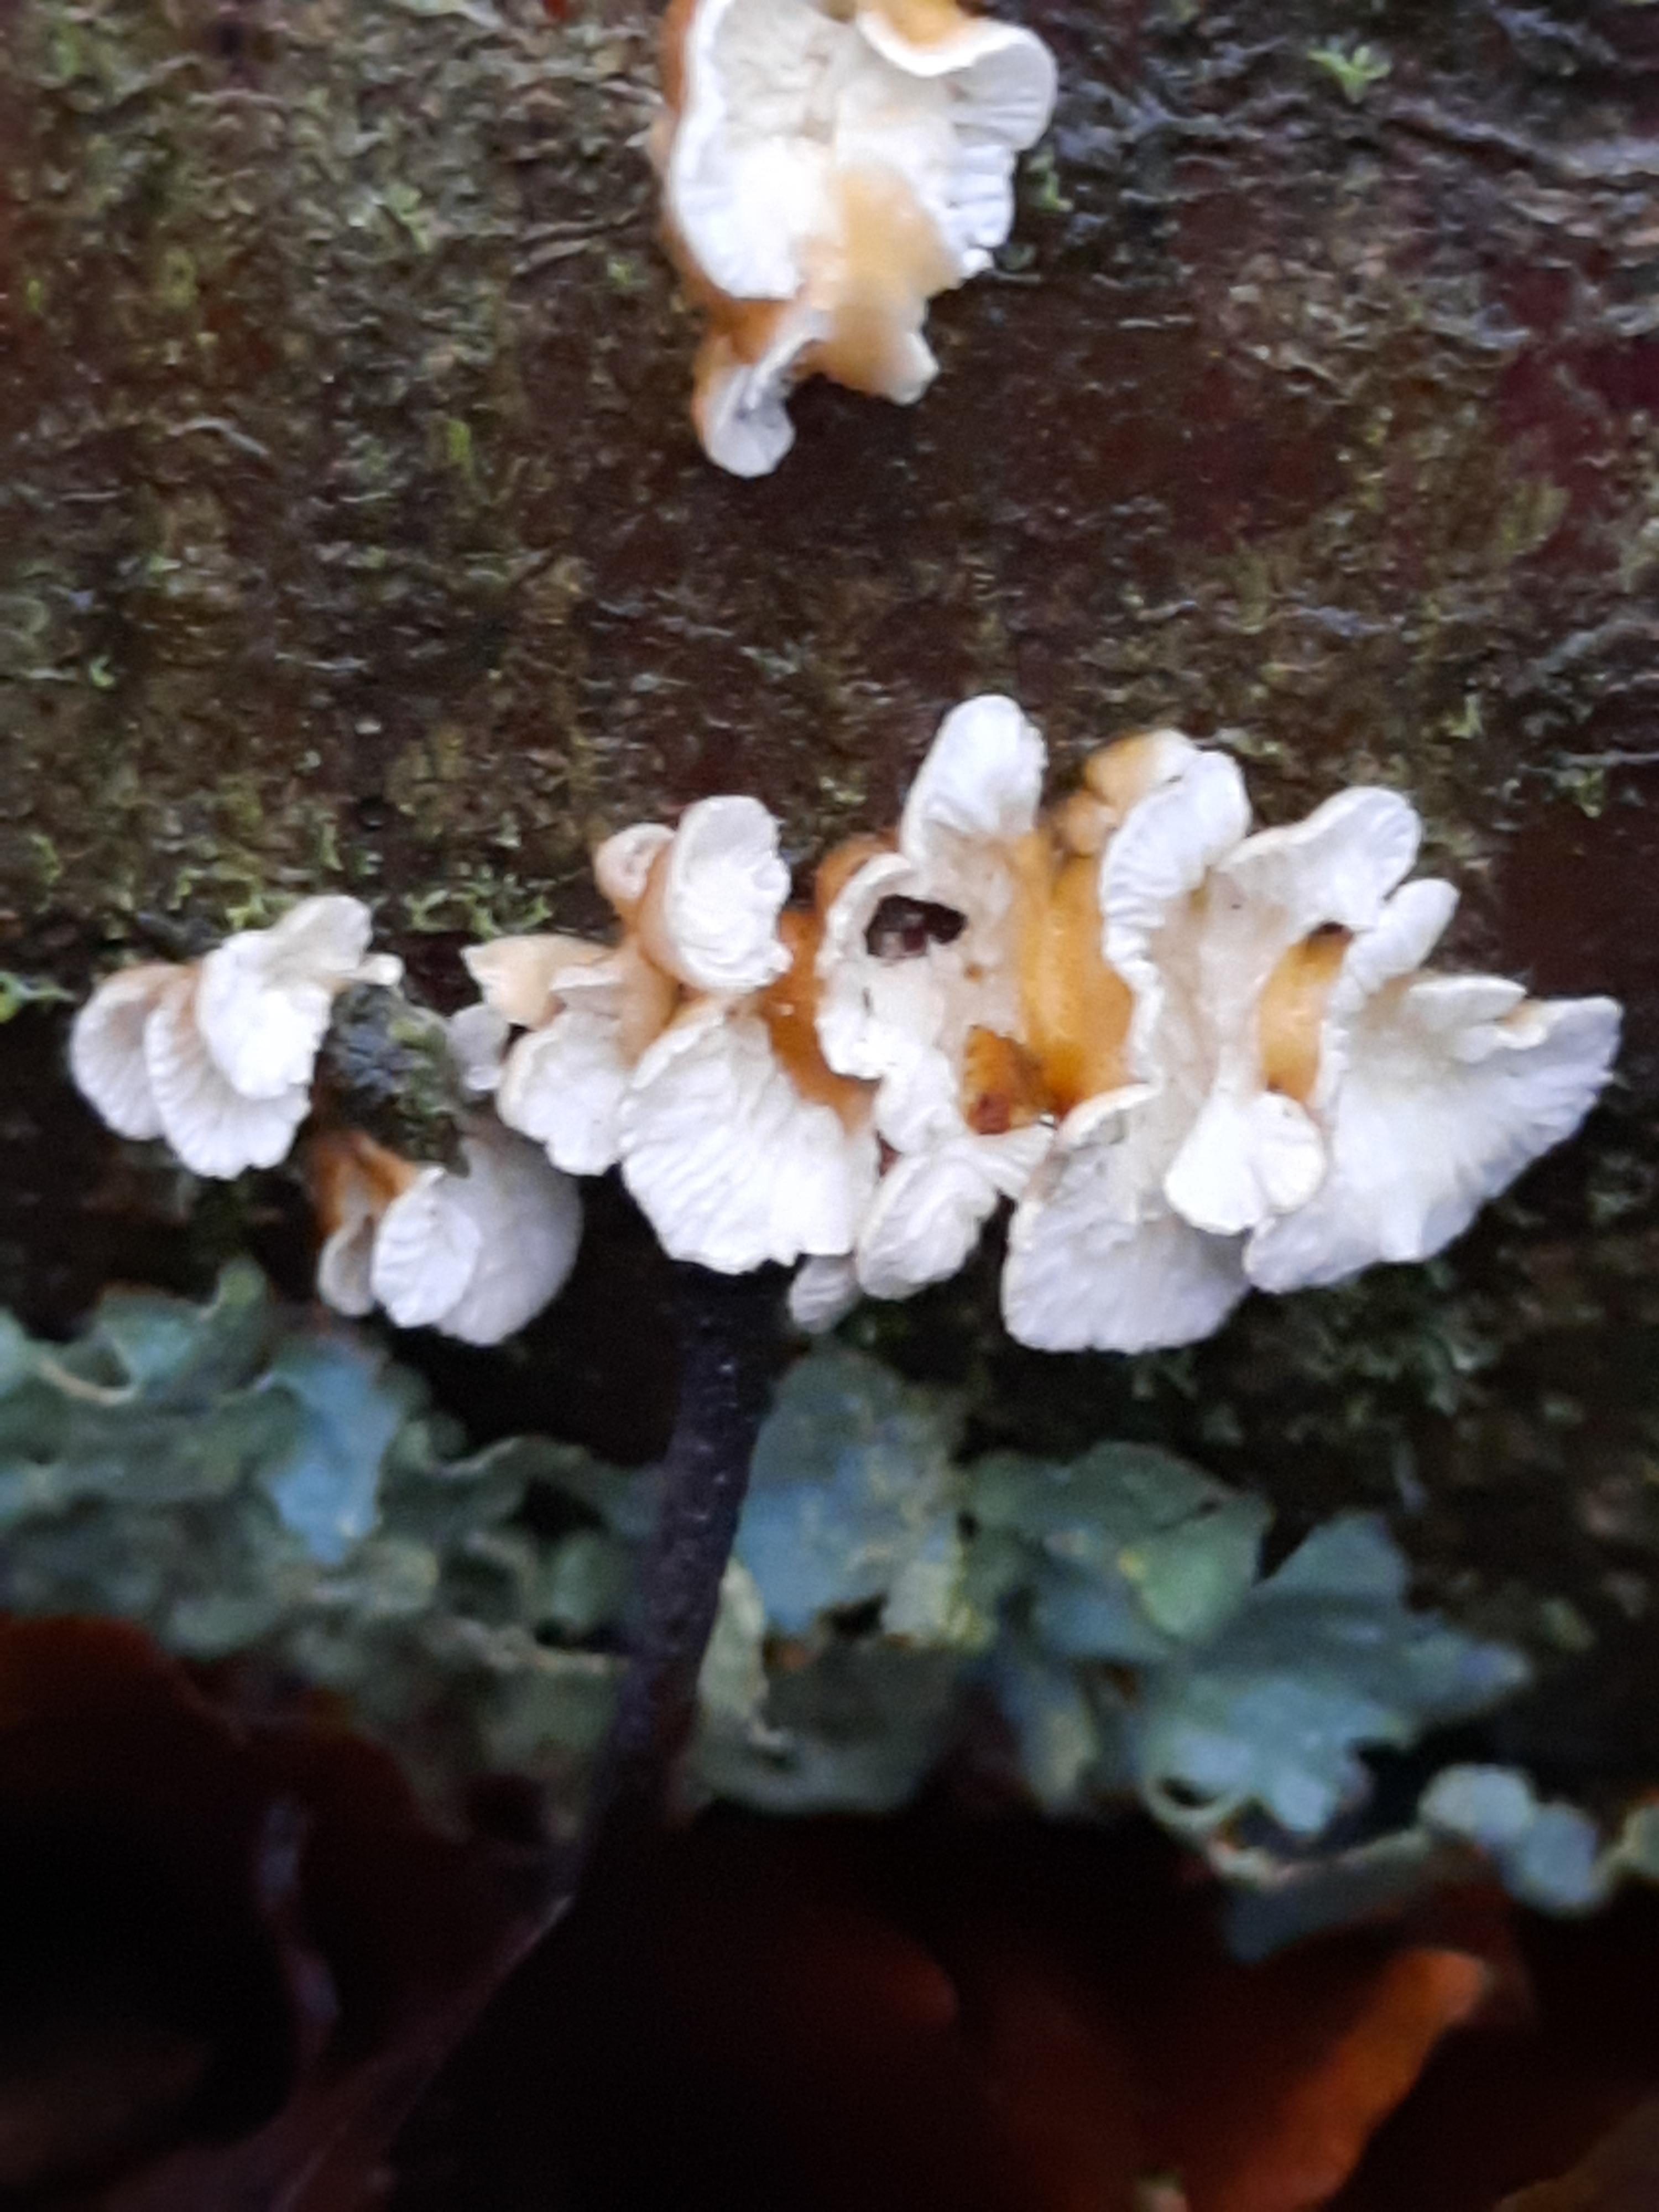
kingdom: Fungi
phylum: Basidiomycota
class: Agaricomycetes
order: Amylocorticiales
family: Amylocorticiaceae
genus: Plicaturopsis
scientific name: Plicaturopsis crispa
